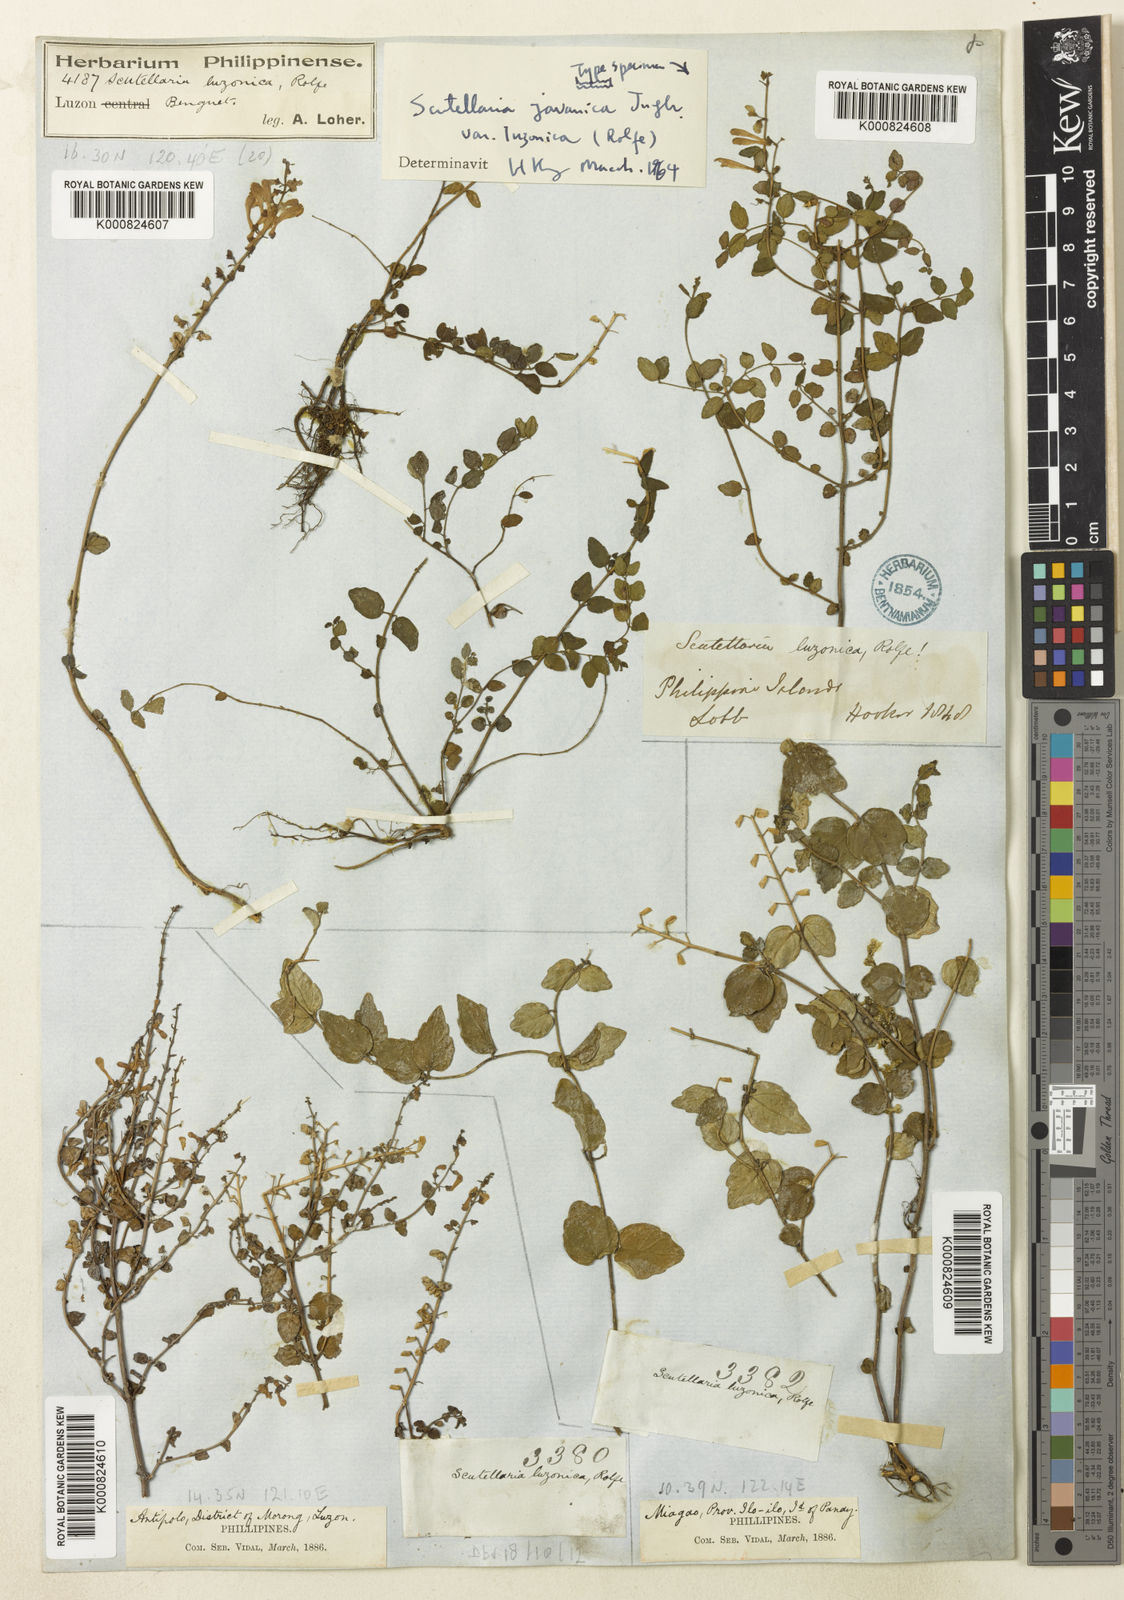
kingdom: Plantae
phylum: Tracheophyta
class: Magnoliopsida
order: Lamiales
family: Lamiaceae
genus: Scutellaria
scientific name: Scutellaria javanica
